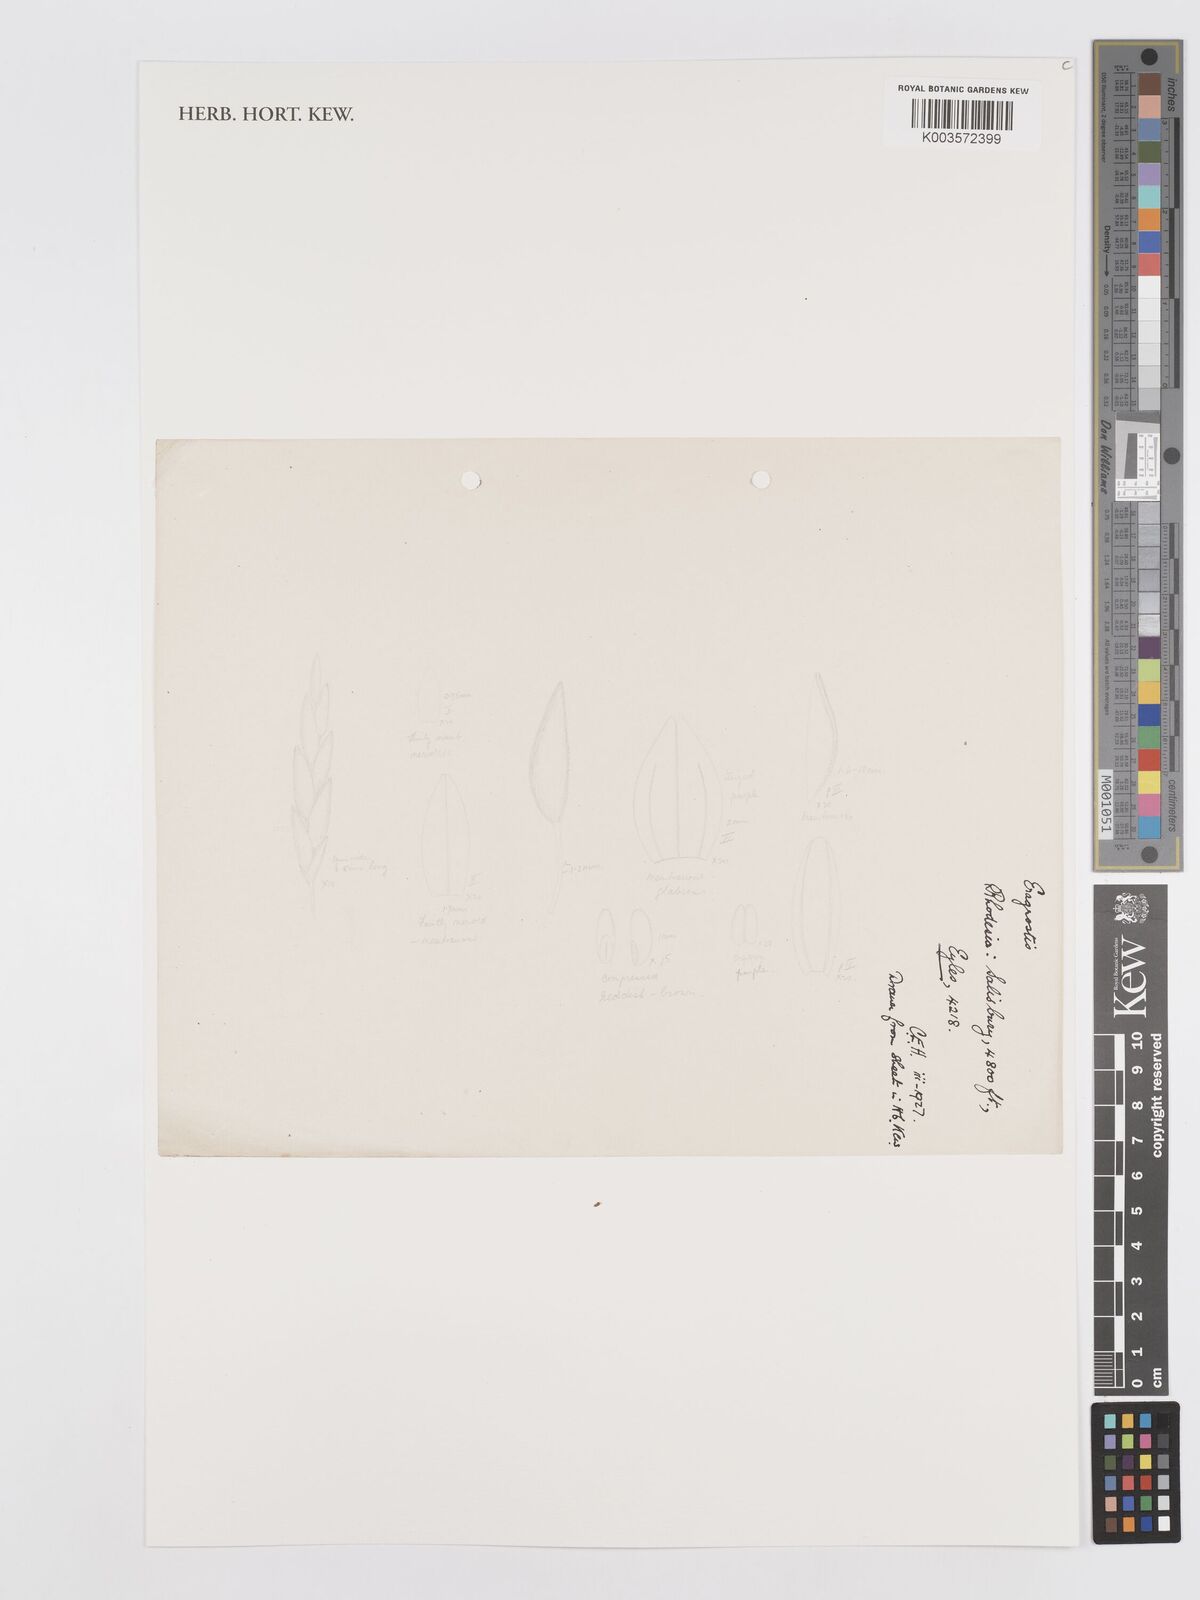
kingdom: Plantae
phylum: Tracheophyta
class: Liliopsida
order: Poales
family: Poaceae
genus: Eragrostis
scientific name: Eragrostis
